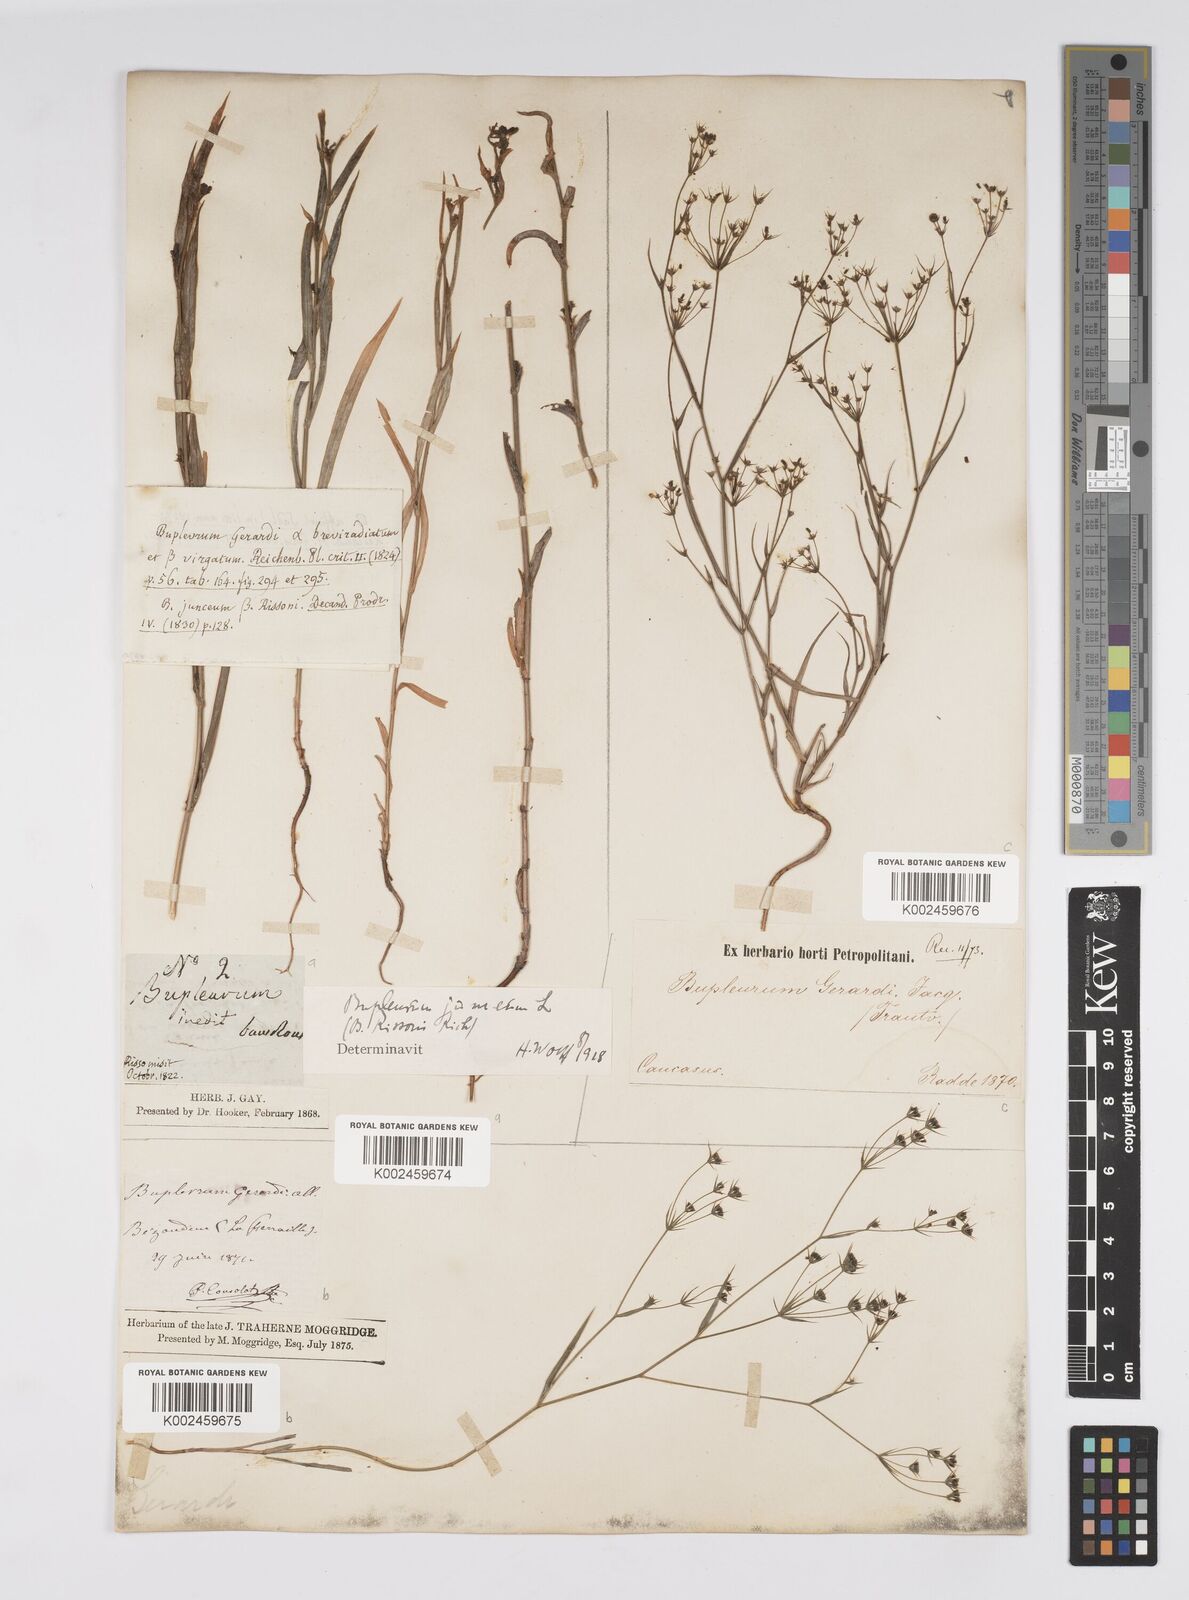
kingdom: Plantae
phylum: Tracheophyta
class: Magnoliopsida
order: Apiales
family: Apiaceae
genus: Bupleurum
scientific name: Bupleurum gerardi
